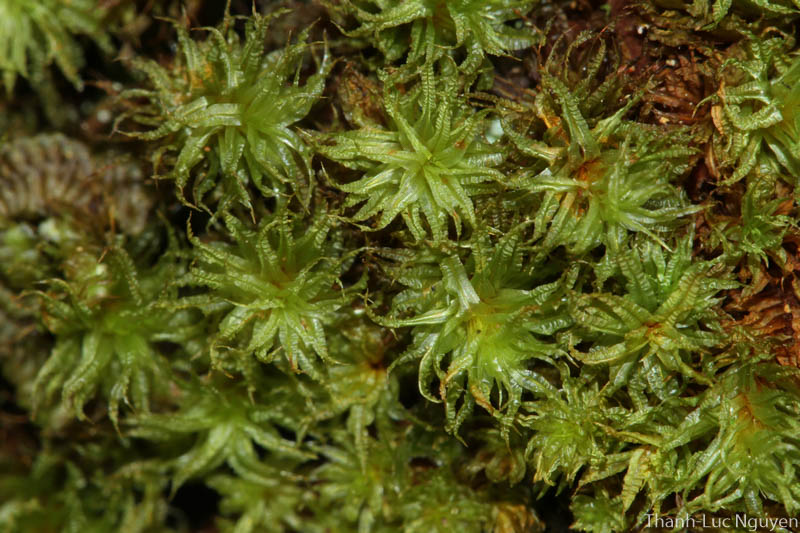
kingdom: Plantae
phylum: Bryophyta
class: Bryopsida
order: Orthotrichales
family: Orthotrichaceae
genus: Macromitrium
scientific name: Macromitrium
